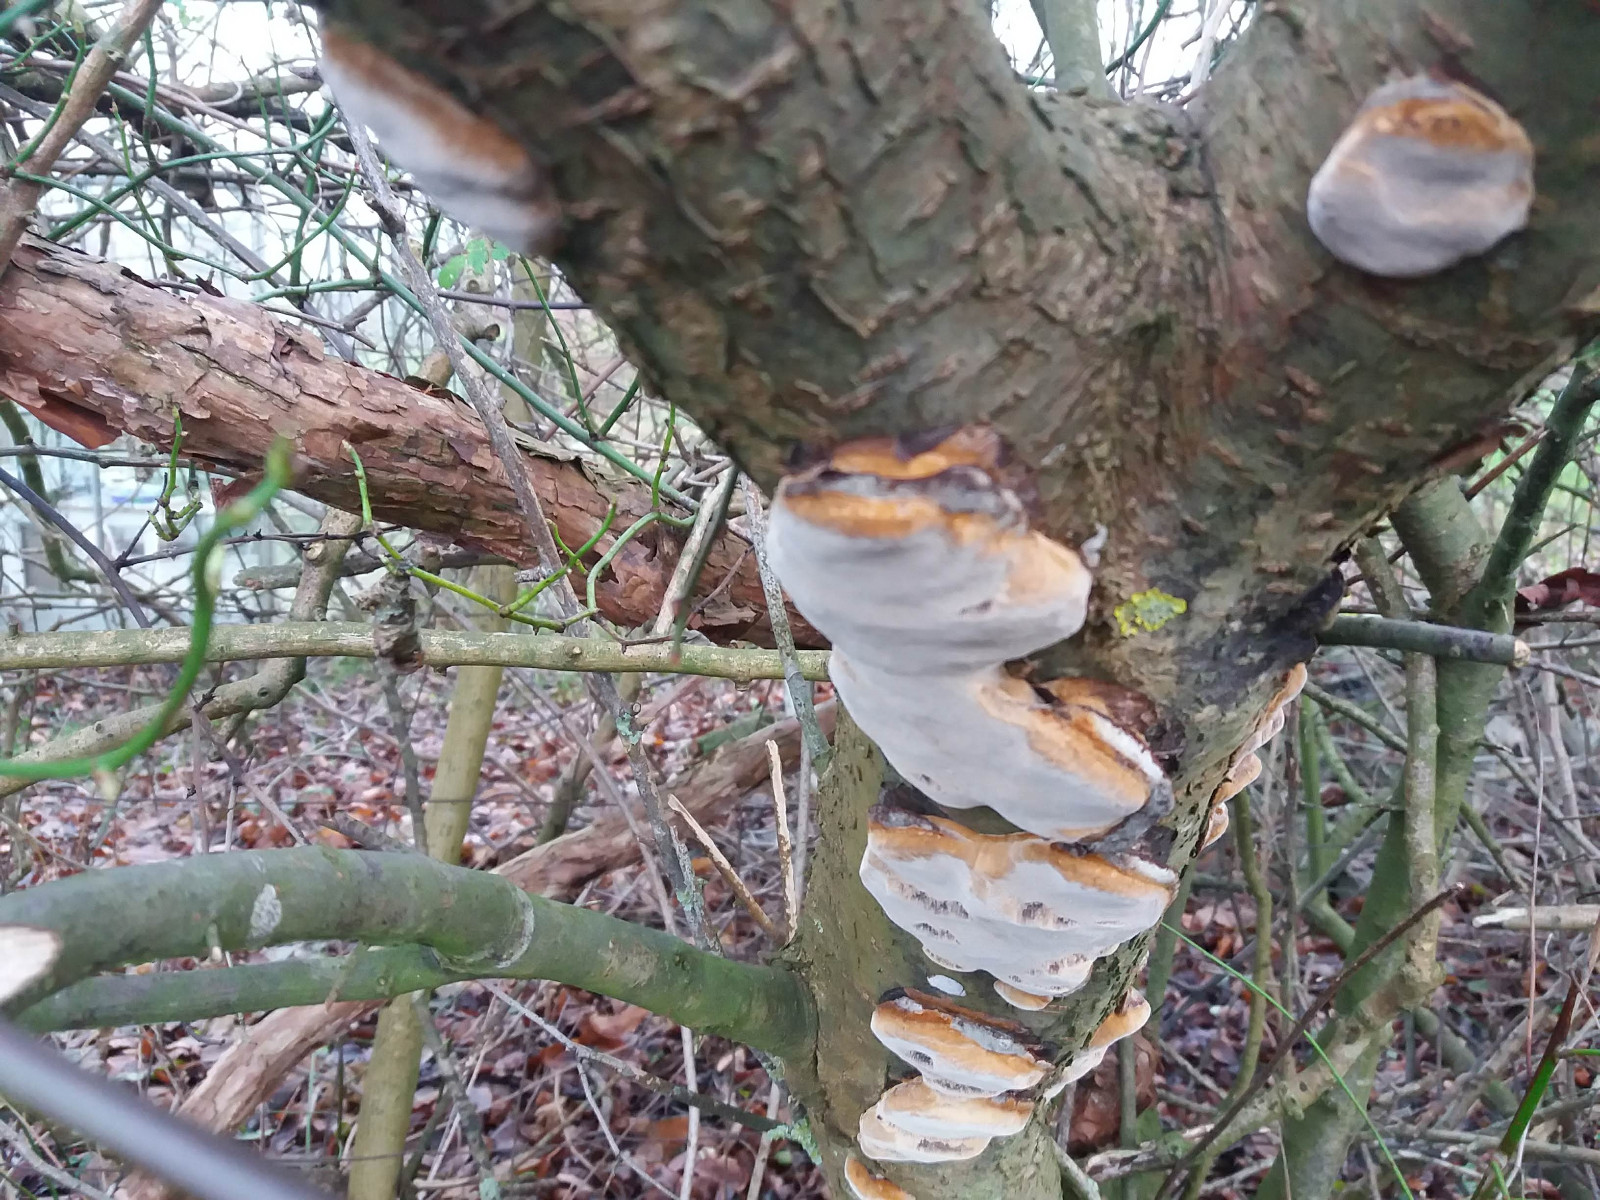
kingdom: Fungi
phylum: Basidiomycota
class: Agaricomycetes
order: Hymenochaetales
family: Hymenochaetaceae
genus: Phellinus
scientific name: Phellinus pomaceus
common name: blomme-ildporesvamp
